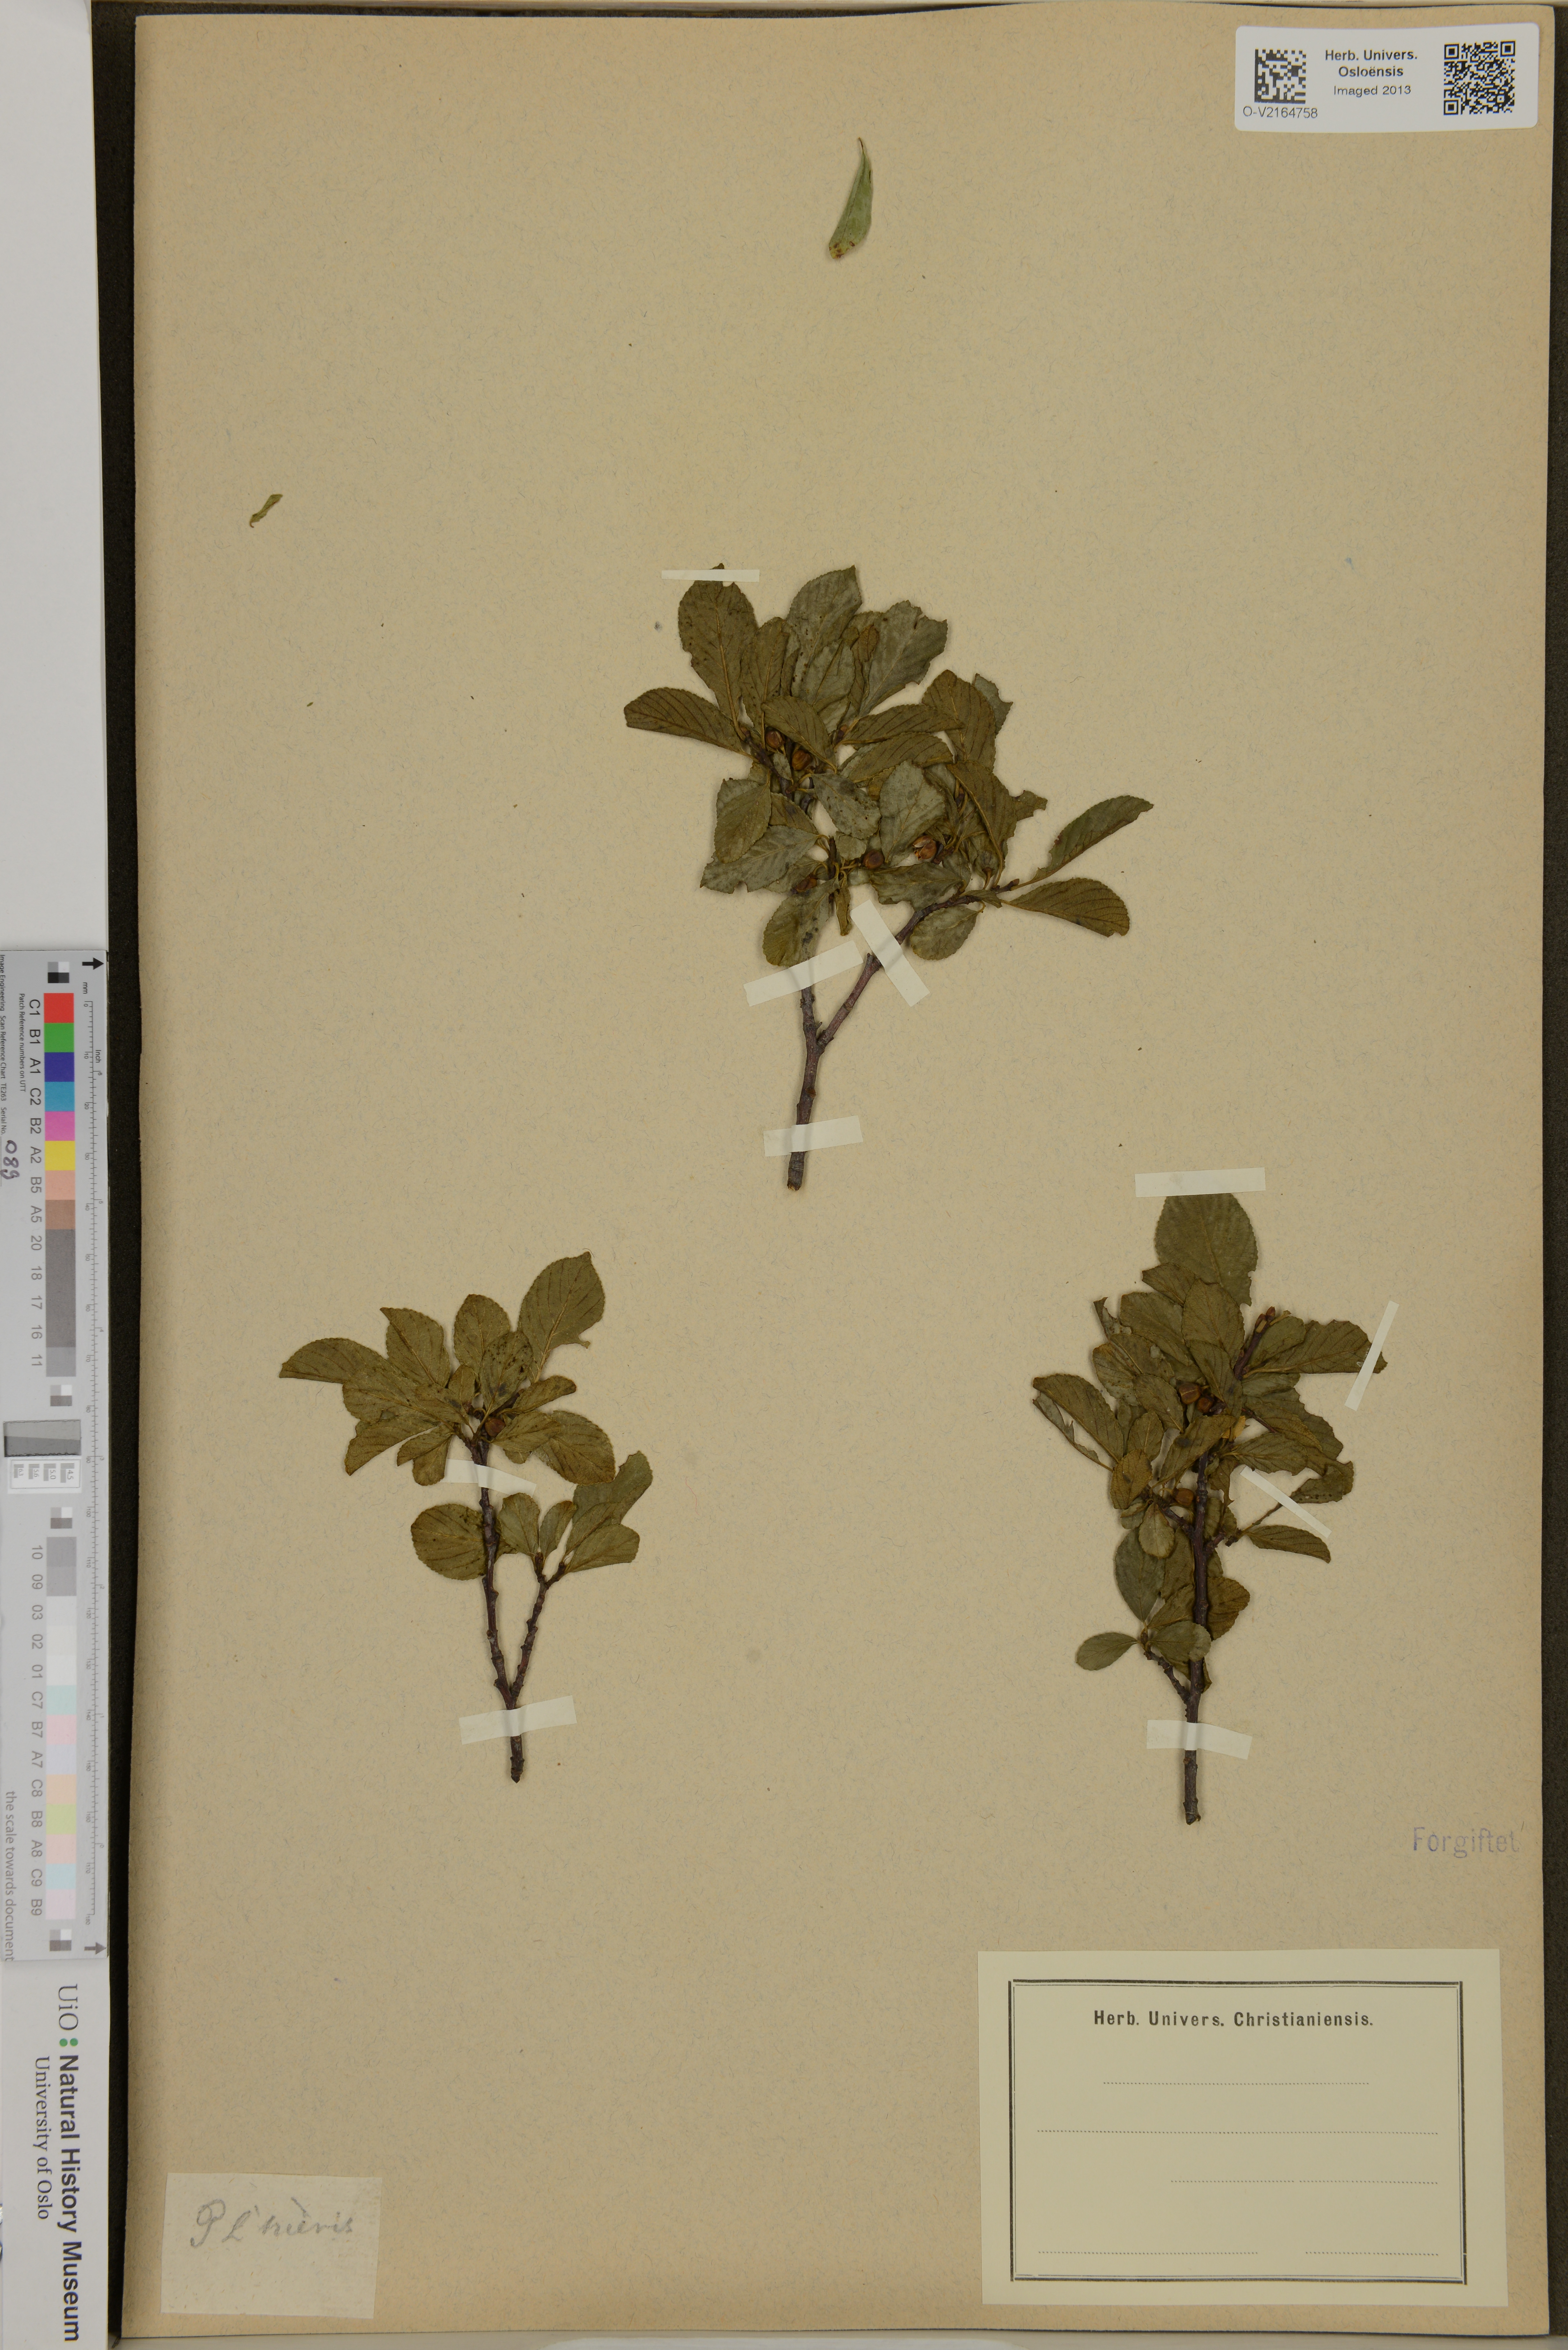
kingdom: Plantae
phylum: Tracheophyta
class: Magnoliopsida
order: Rosales
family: Rhamnaceae
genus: Ziziphus
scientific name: Ziziphus trinervis
